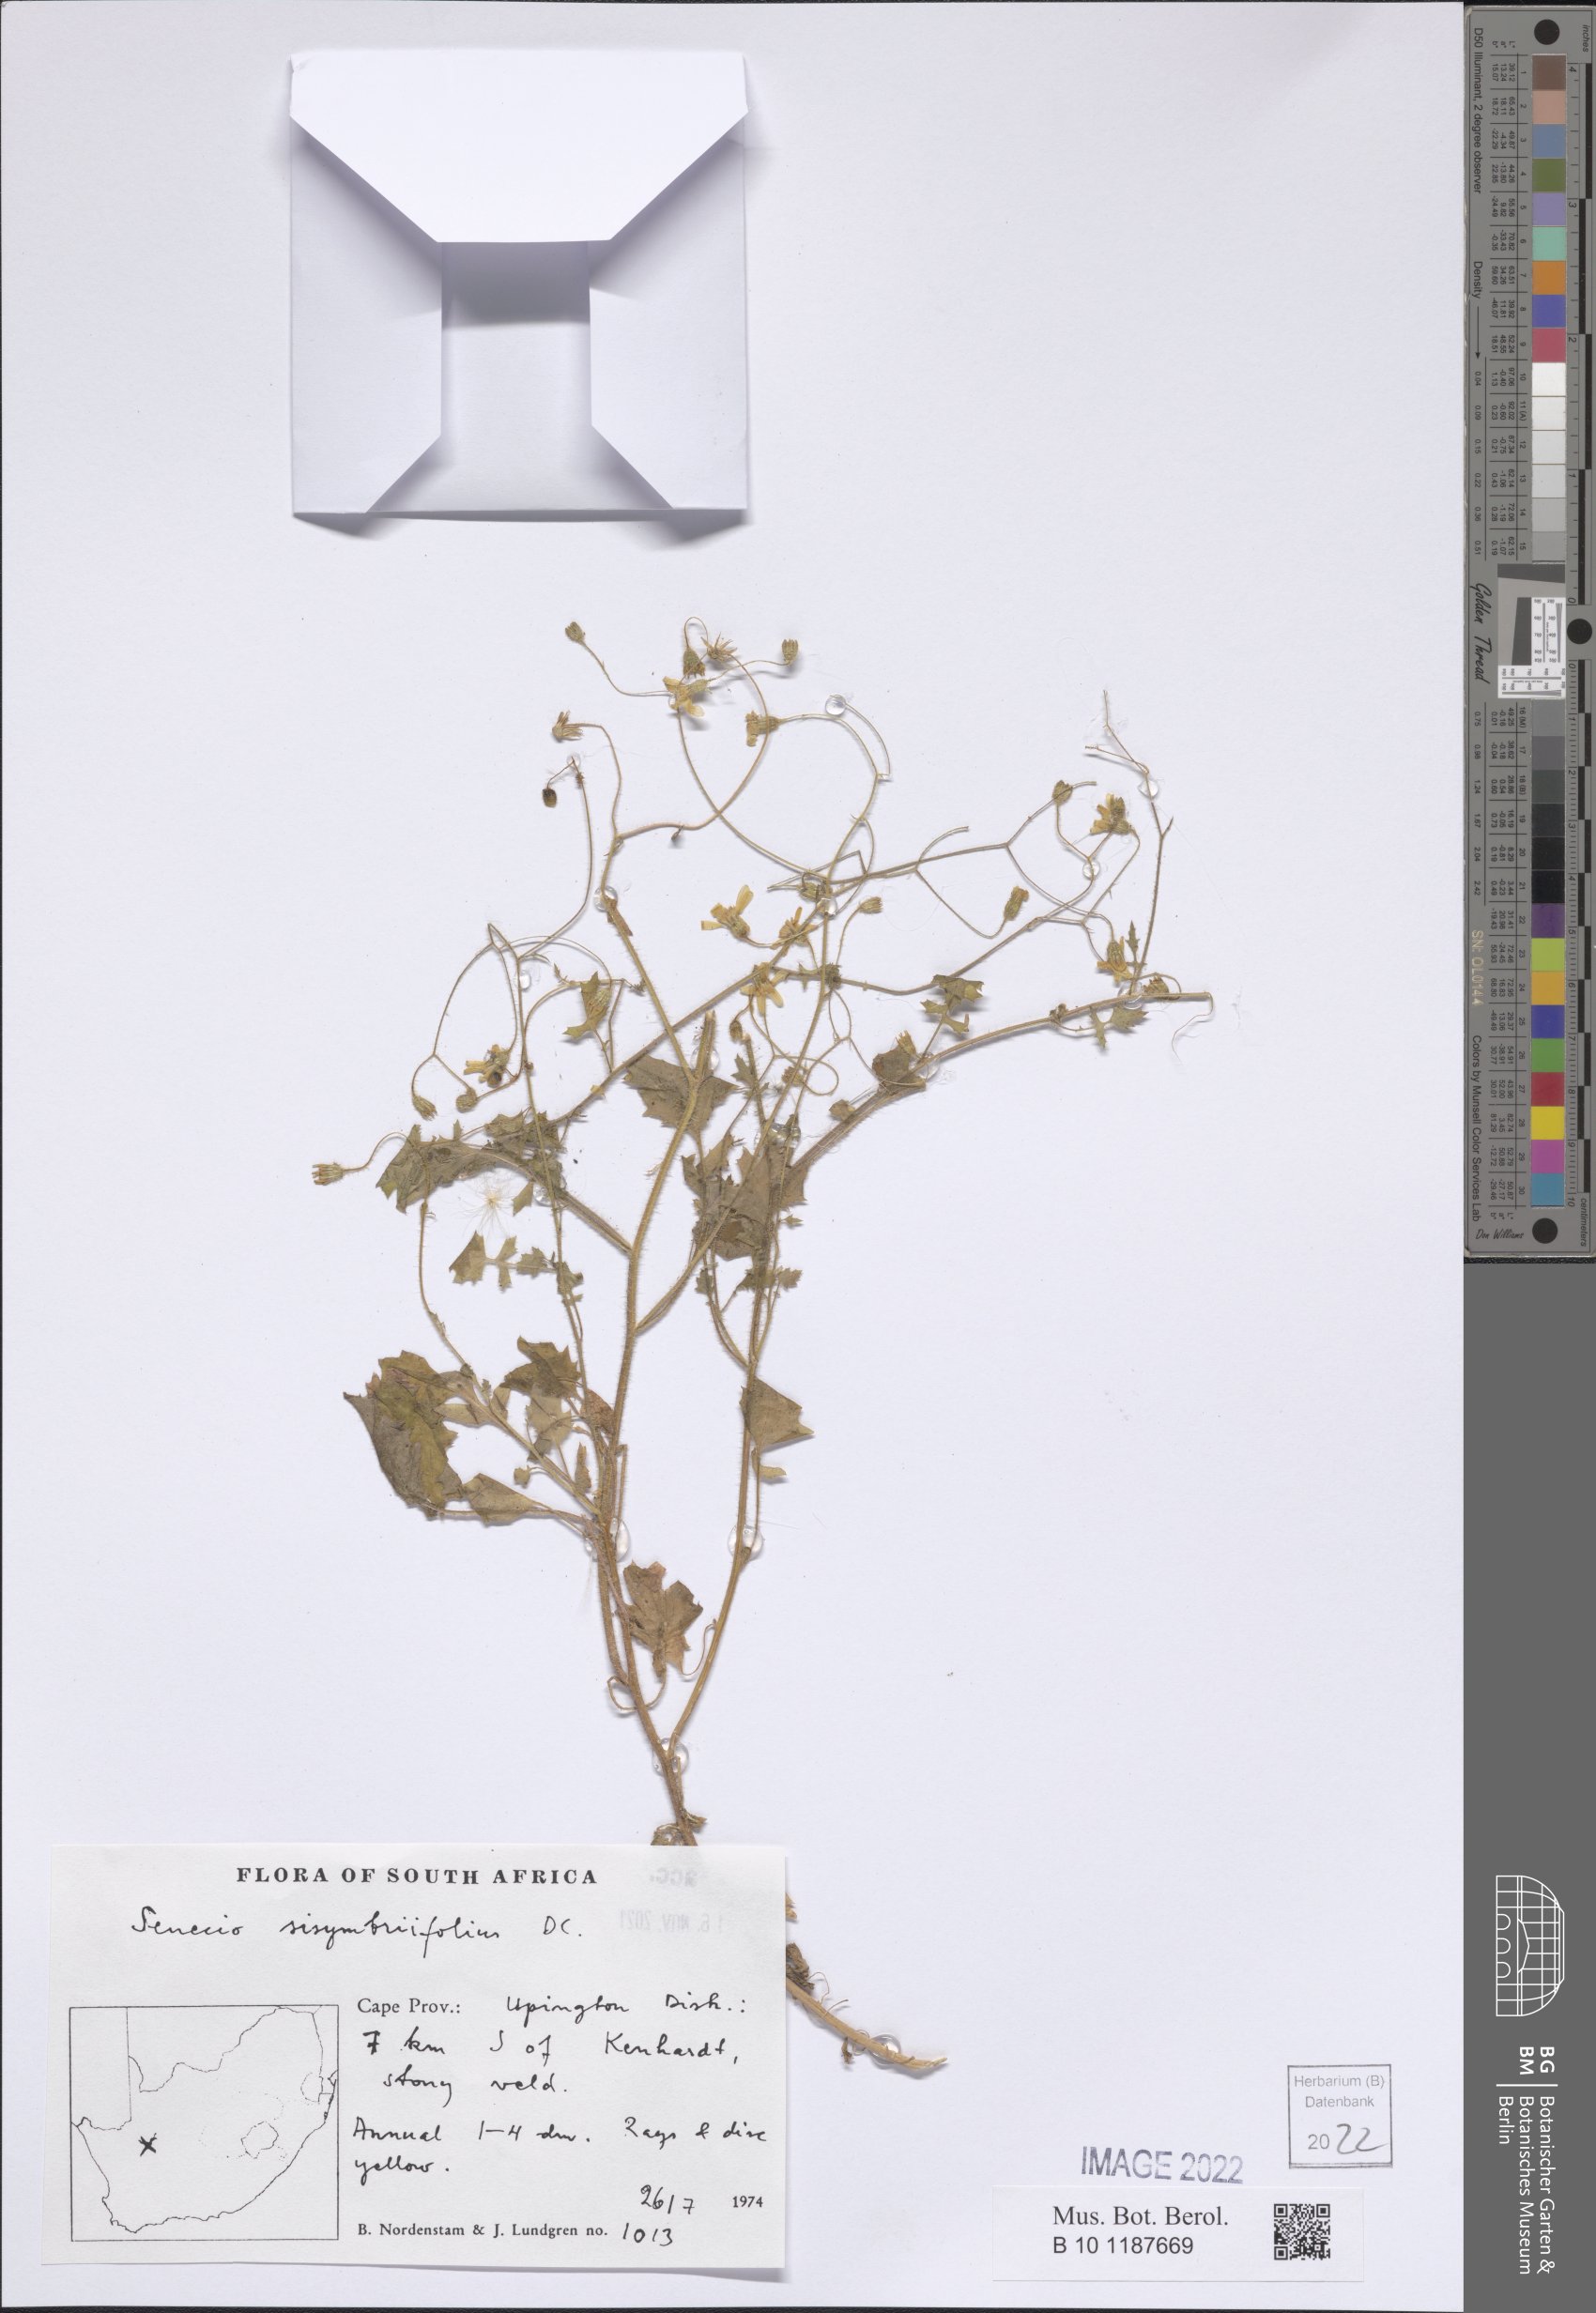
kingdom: Plantae
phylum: Tracheophyta
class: Magnoliopsida
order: Asterales
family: Asteraceae
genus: Senecio
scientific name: Senecio sisymbrifolius
